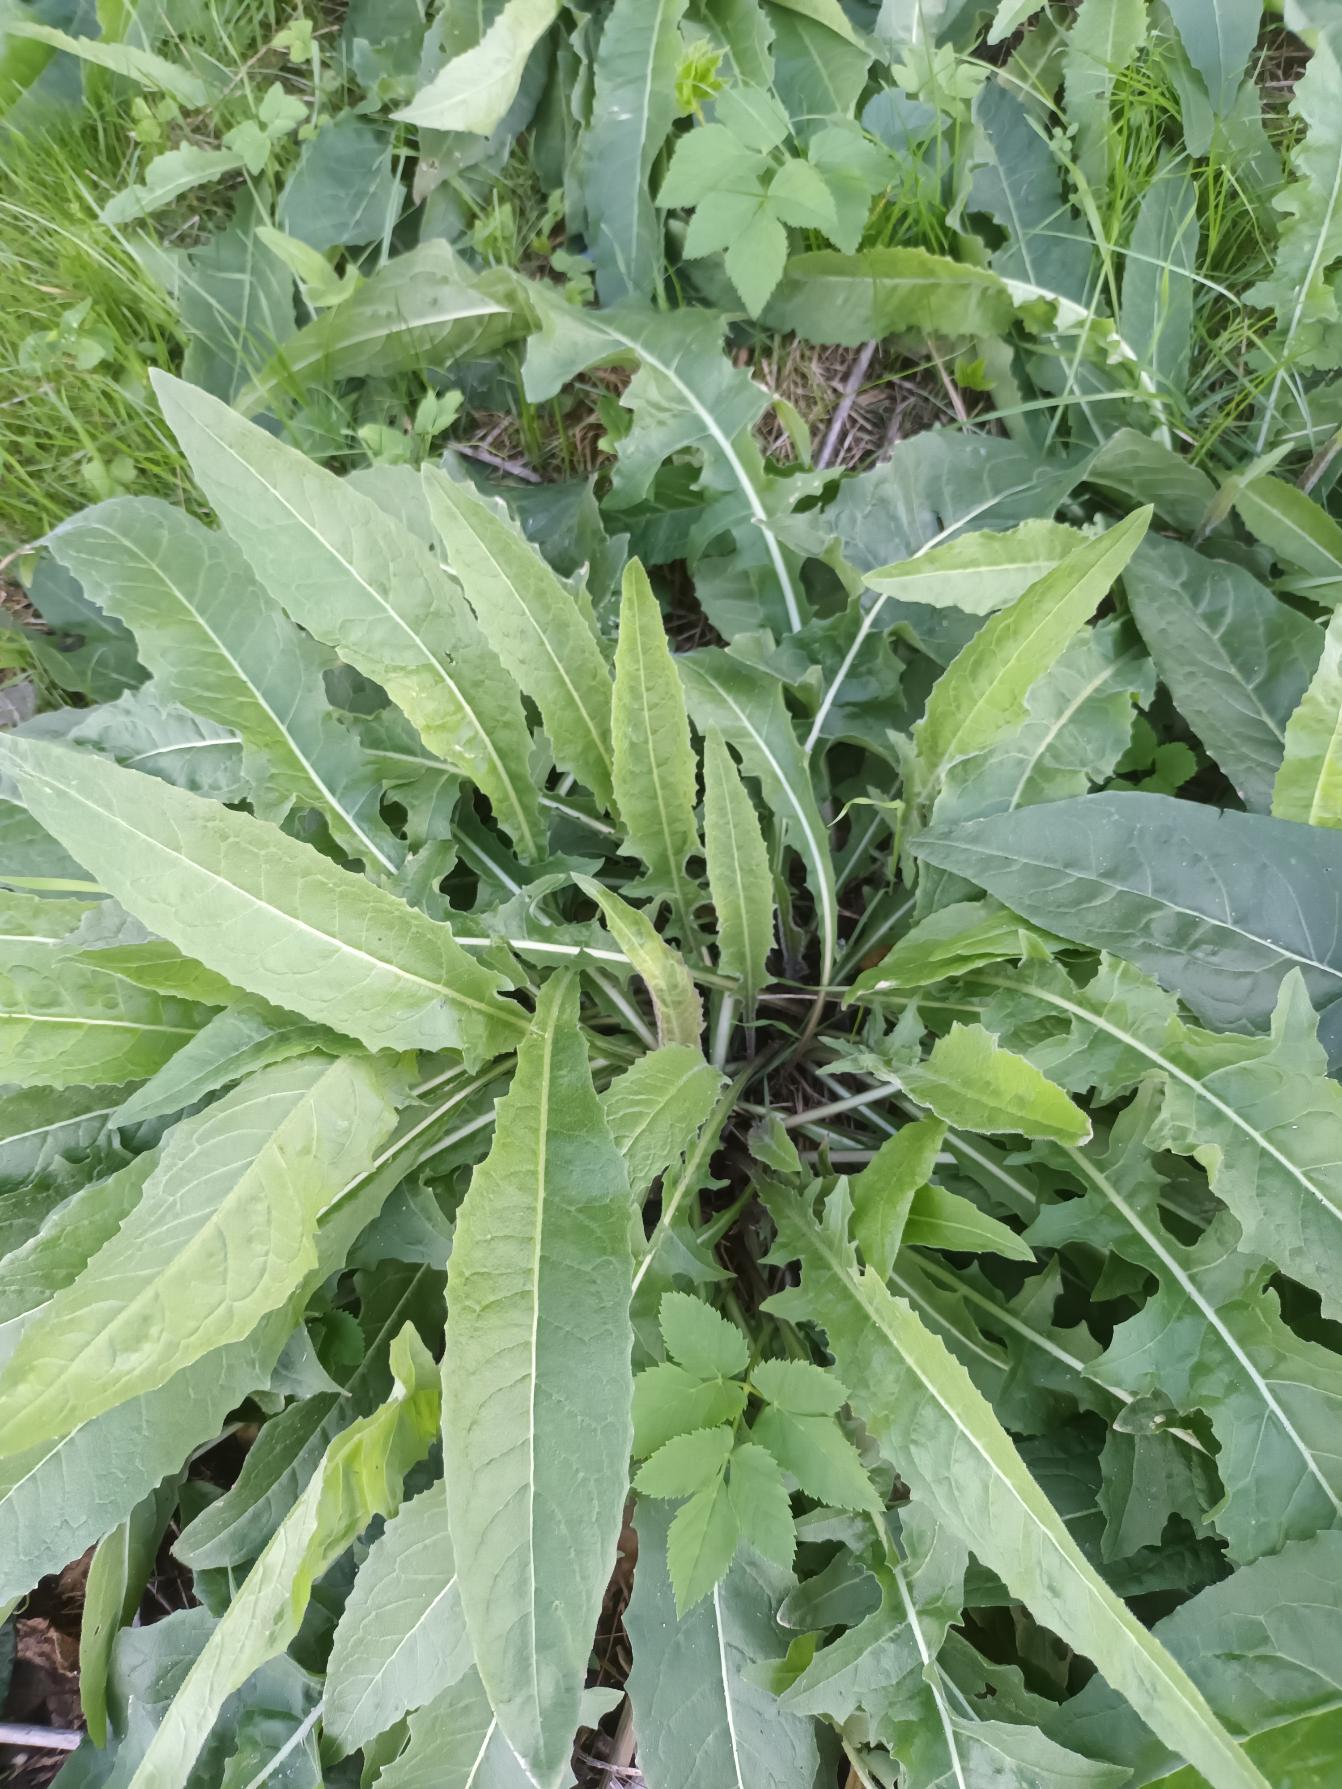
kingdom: Plantae
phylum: Tracheophyta
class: Magnoliopsida
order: Brassicales
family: Brassicaceae
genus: Bunias
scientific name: Bunias orientalis
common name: Takkeklap
